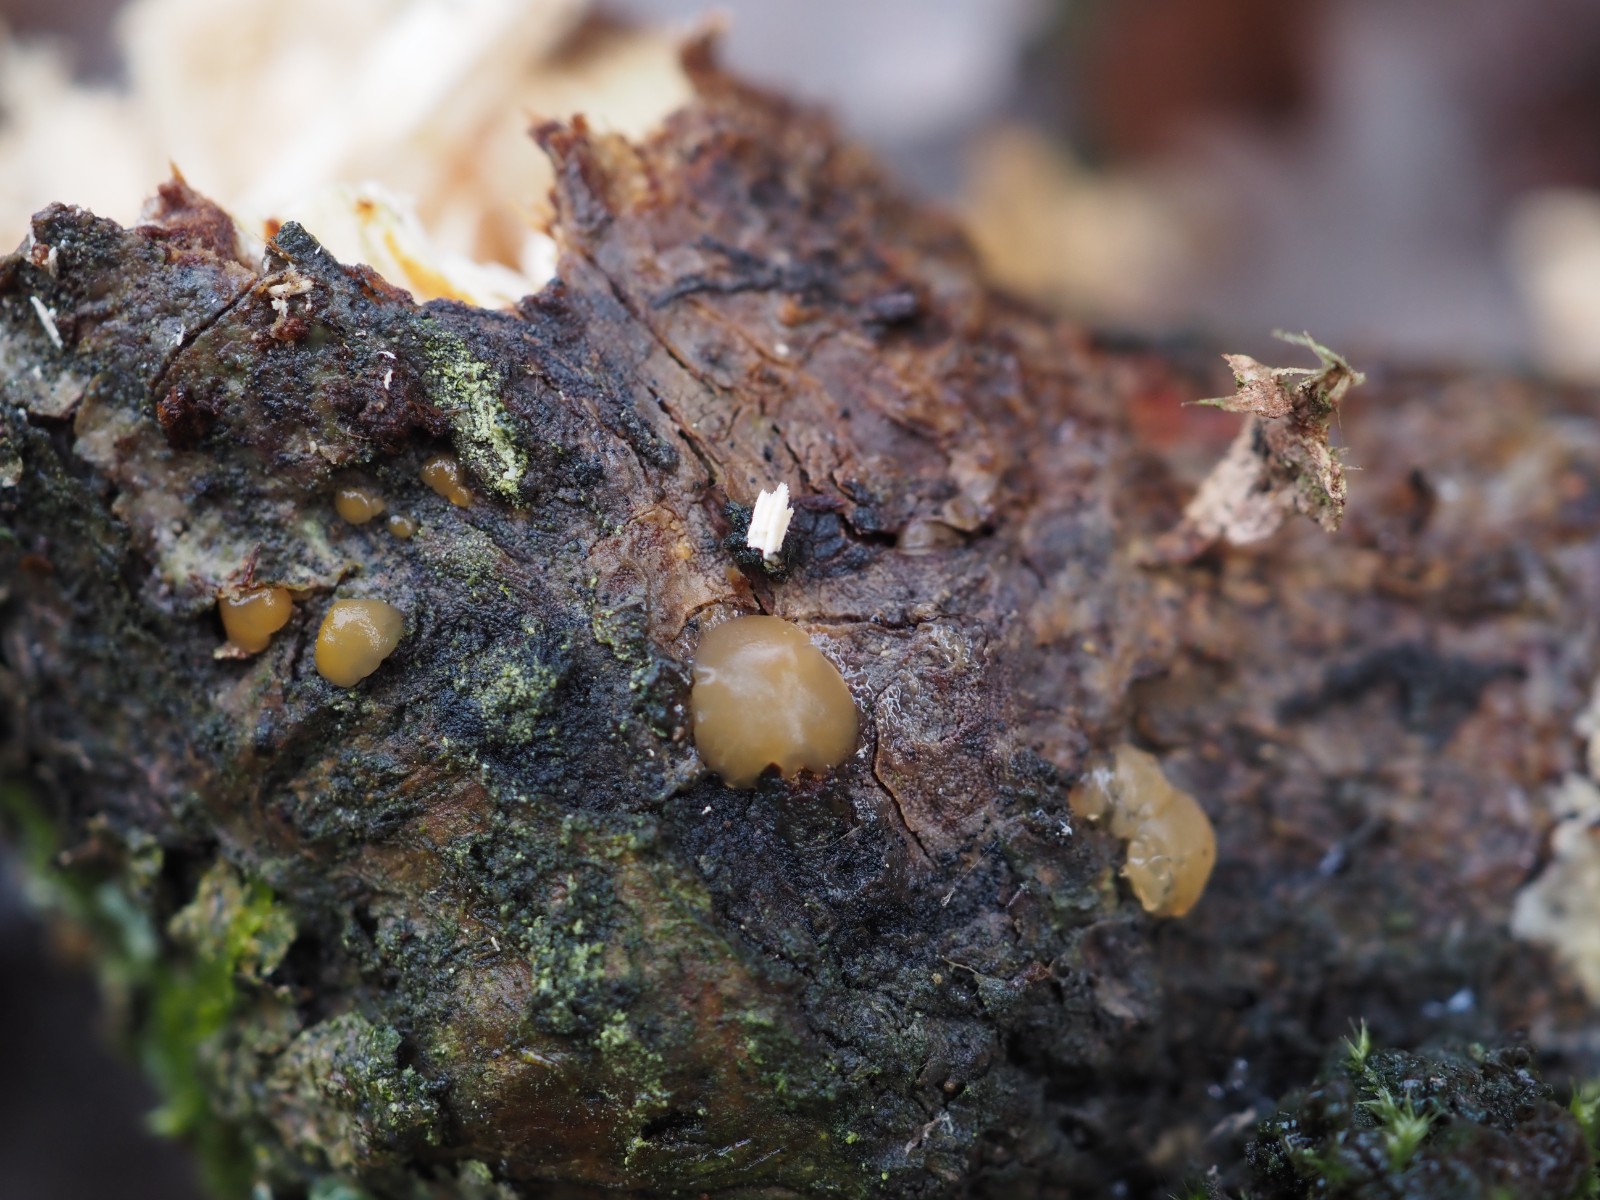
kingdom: Fungi
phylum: Basidiomycota
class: Dacrymycetes
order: Dacrymycetales
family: Dacrymycetaceae
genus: Dacrymyces
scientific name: Dacrymyces lacrymalis
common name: rynket tåresvamp
